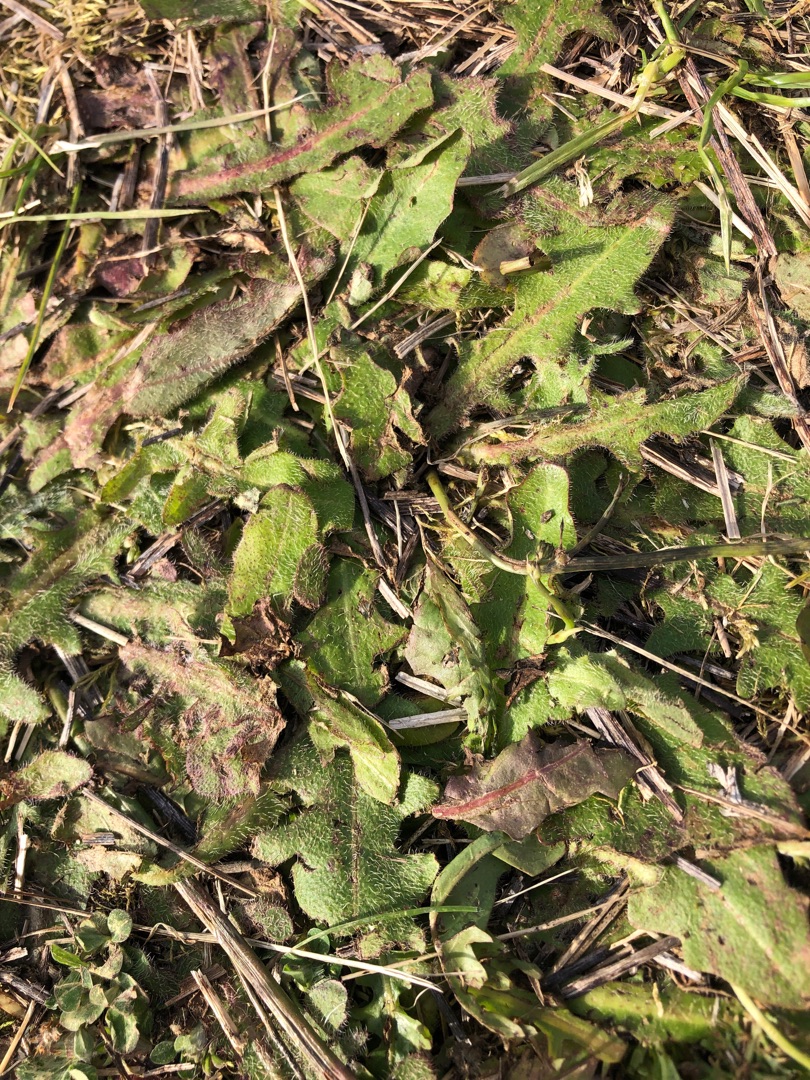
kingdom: Plantae
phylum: Tracheophyta
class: Magnoliopsida
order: Asterales
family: Asteraceae
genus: Hypochaeris
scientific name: Hypochaeris radicata
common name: Almindelig kongepen
